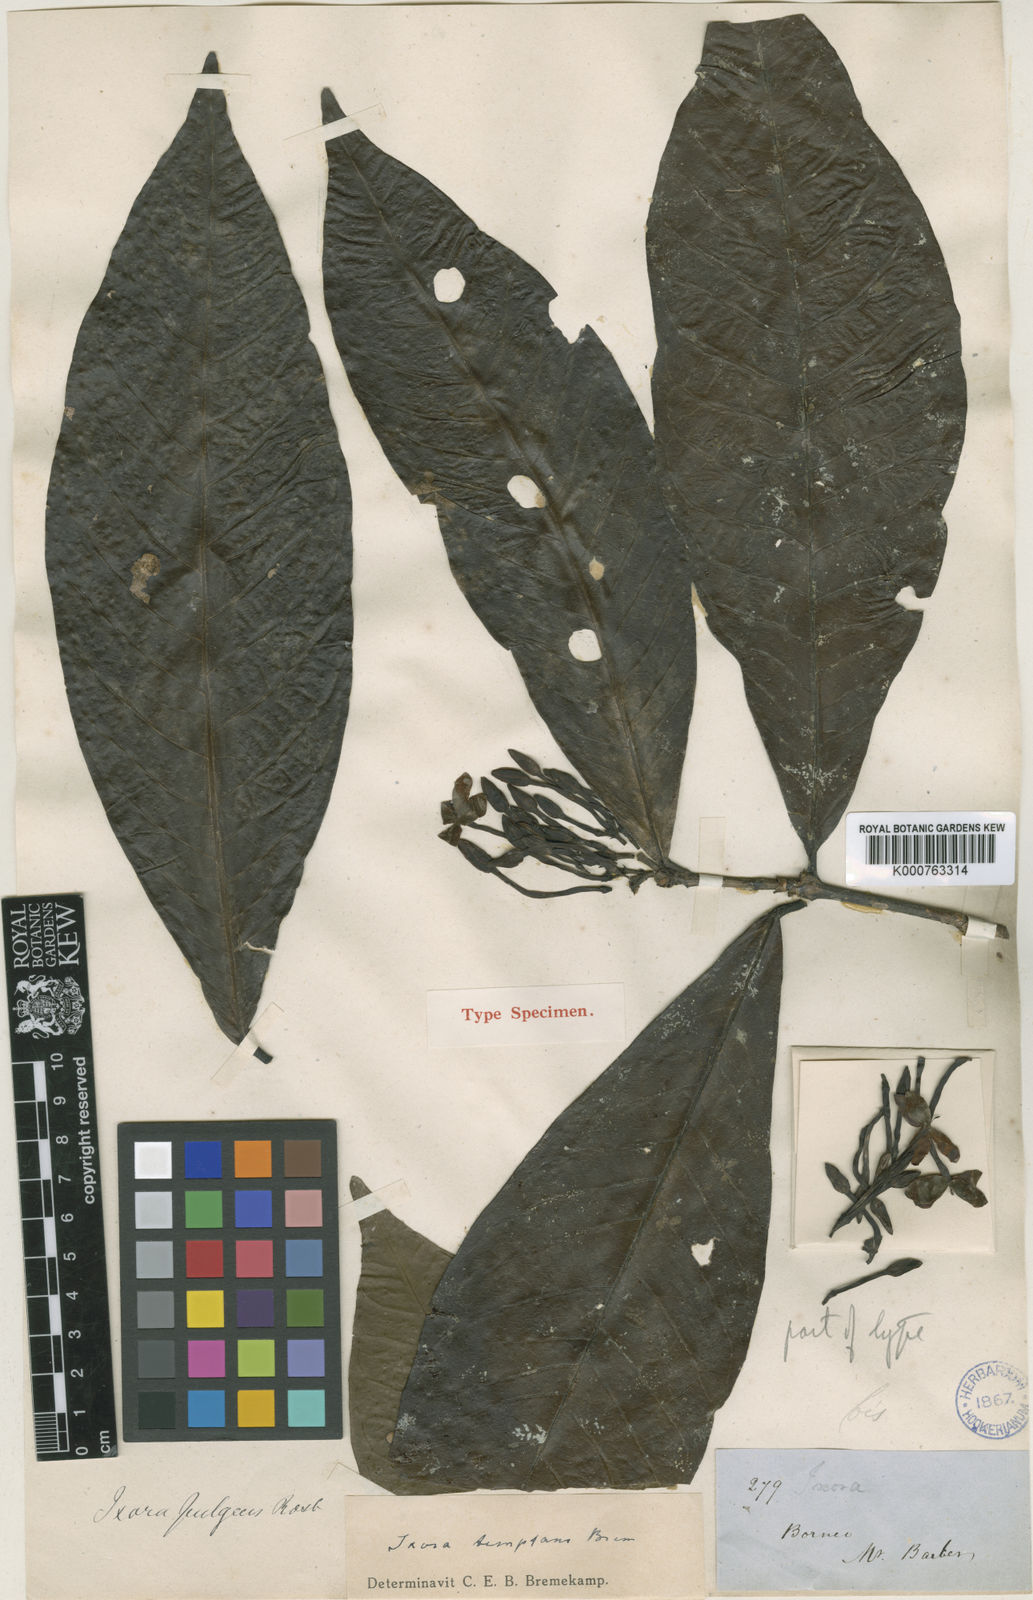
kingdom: Plantae
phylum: Tracheophyta
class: Magnoliopsida
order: Gentianales
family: Rubiaceae
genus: Ixora
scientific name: Ixora temptans
